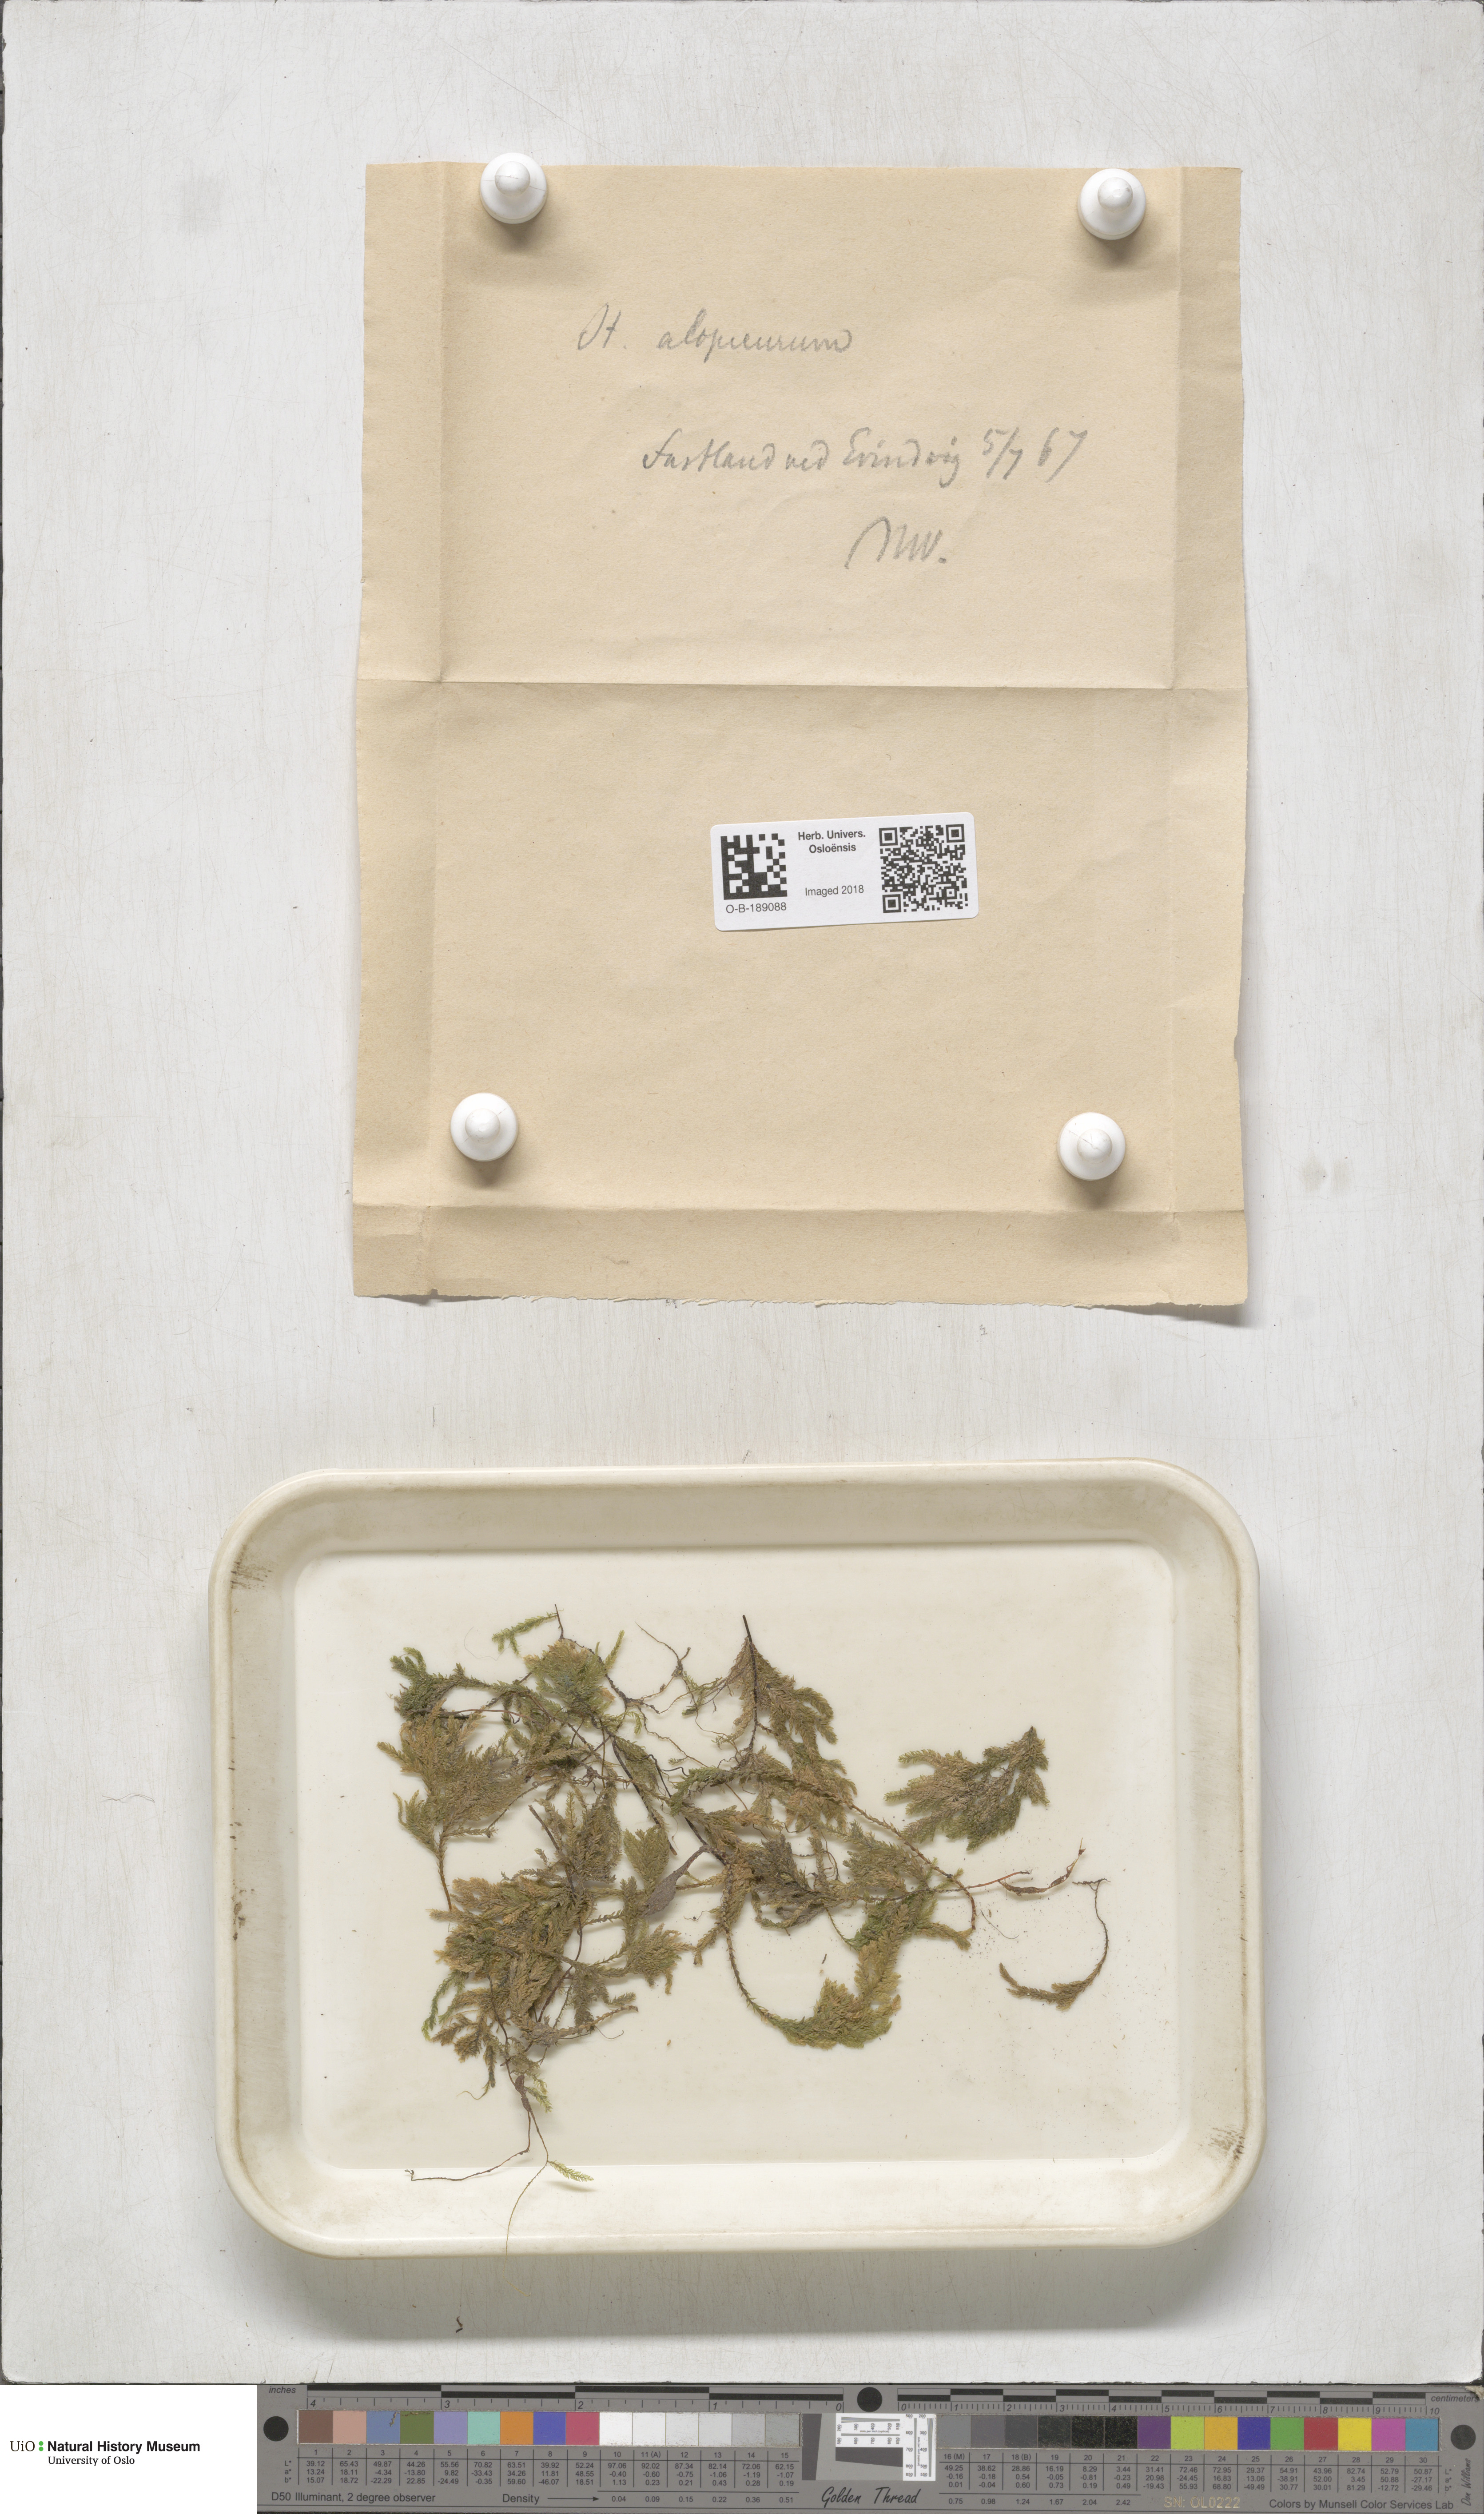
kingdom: Plantae
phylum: Bryophyta
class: Bryopsida
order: Hypnales
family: Neckeraceae
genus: Thamnobryum
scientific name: Thamnobryum alopecurum
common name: Fox-tail feather-moss
